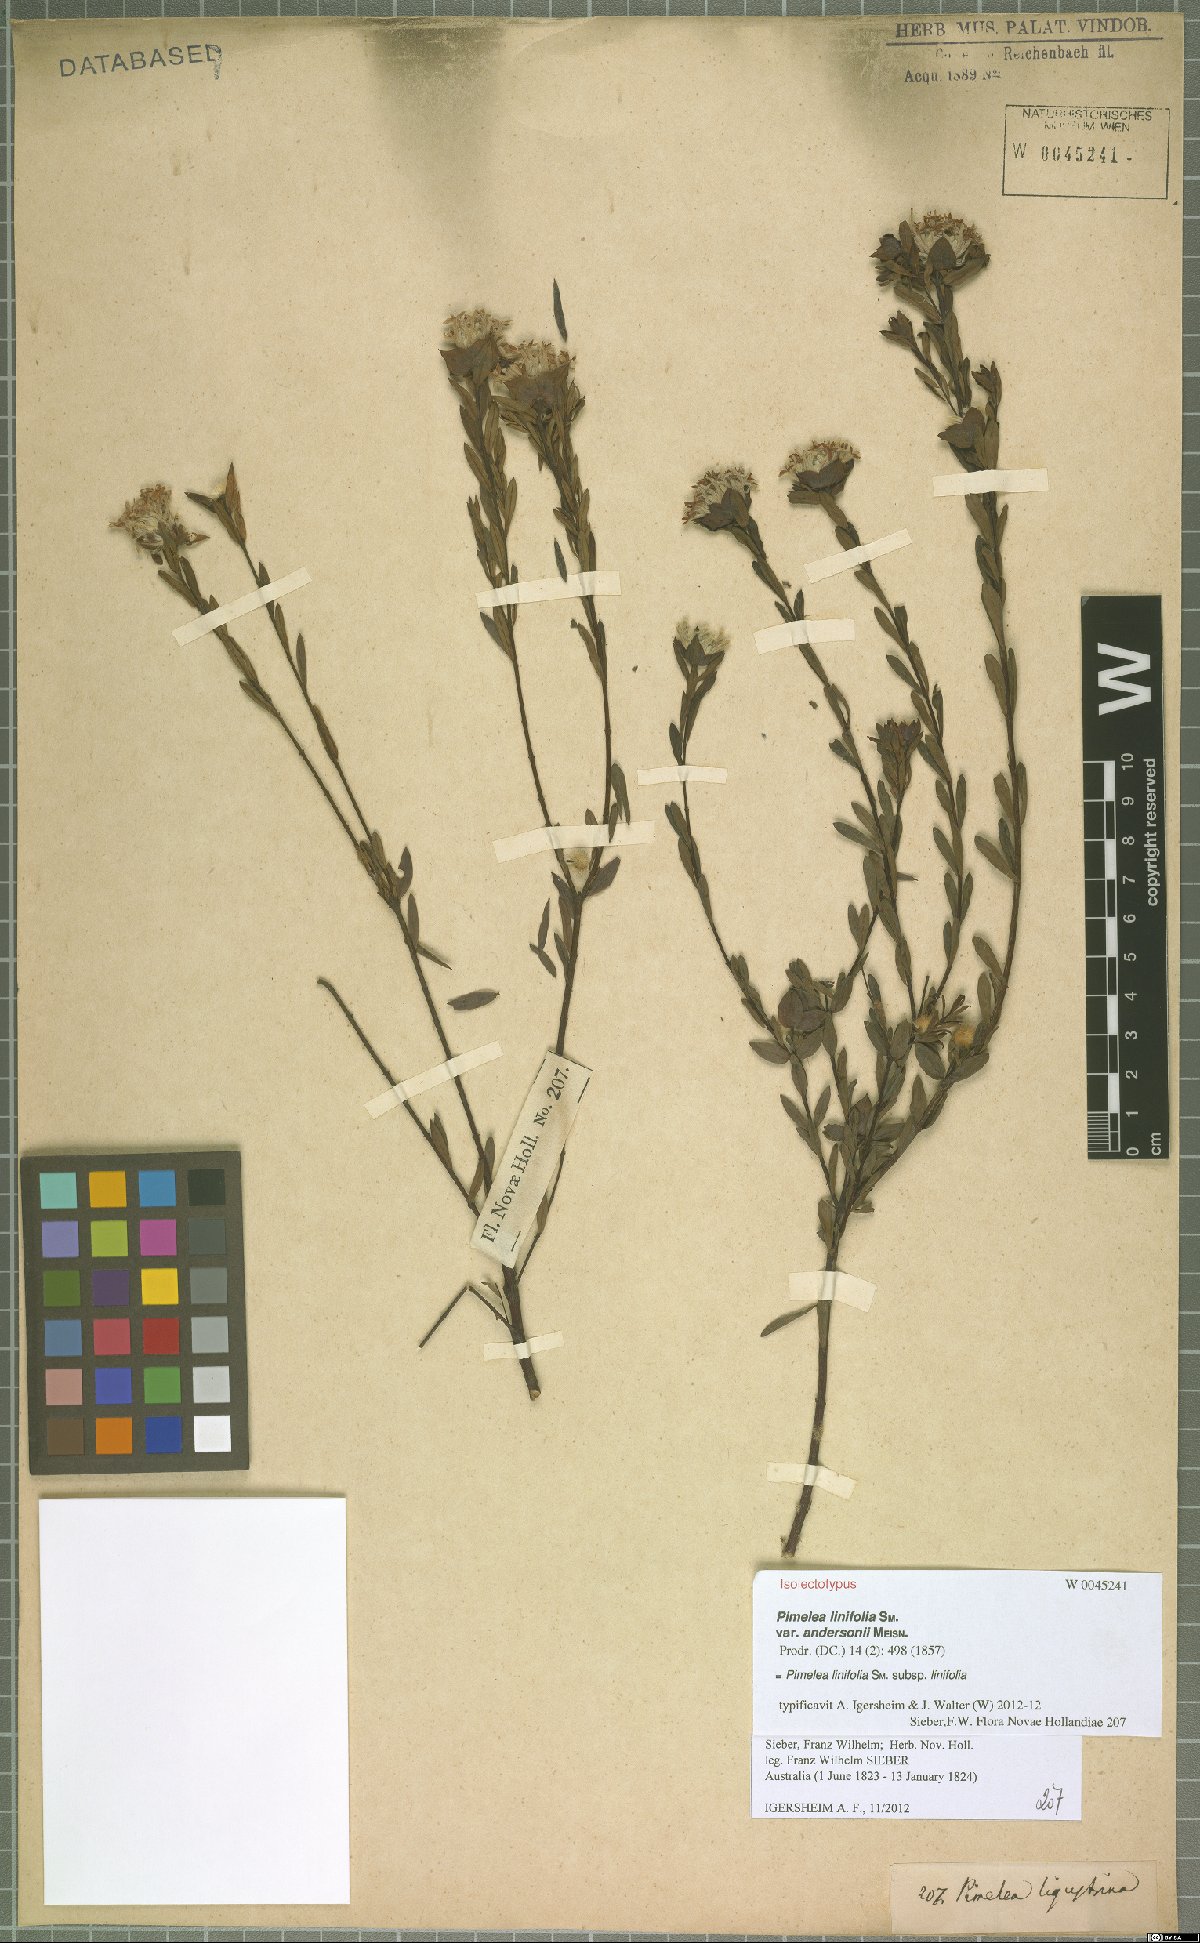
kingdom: Plantae
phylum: Tracheophyta
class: Magnoliopsida
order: Malvales
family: Thymelaeaceae
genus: Pimelea
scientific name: Pimelea linifolia
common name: Queen-of-the-bush
